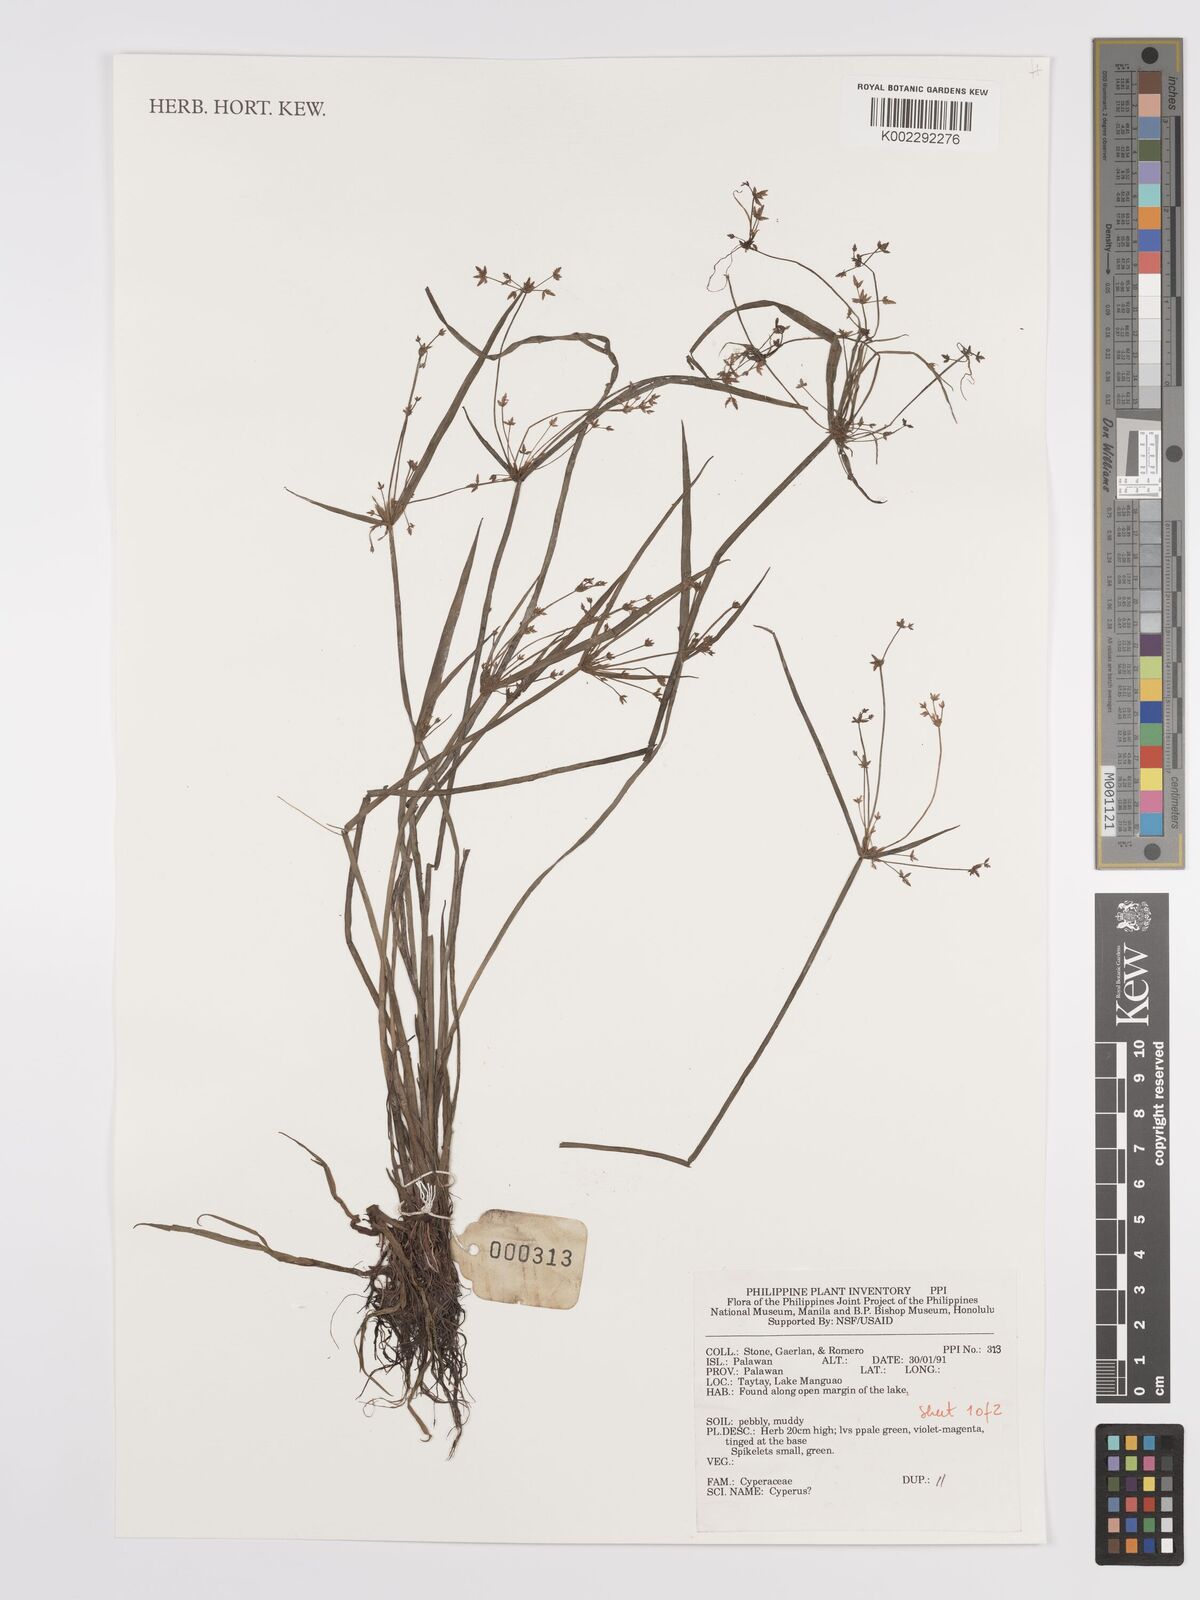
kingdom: Plantae
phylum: Tracheophyta
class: Liliopsida
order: Poales
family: Cyperaceae
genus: Cyperus
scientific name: Cyperus
